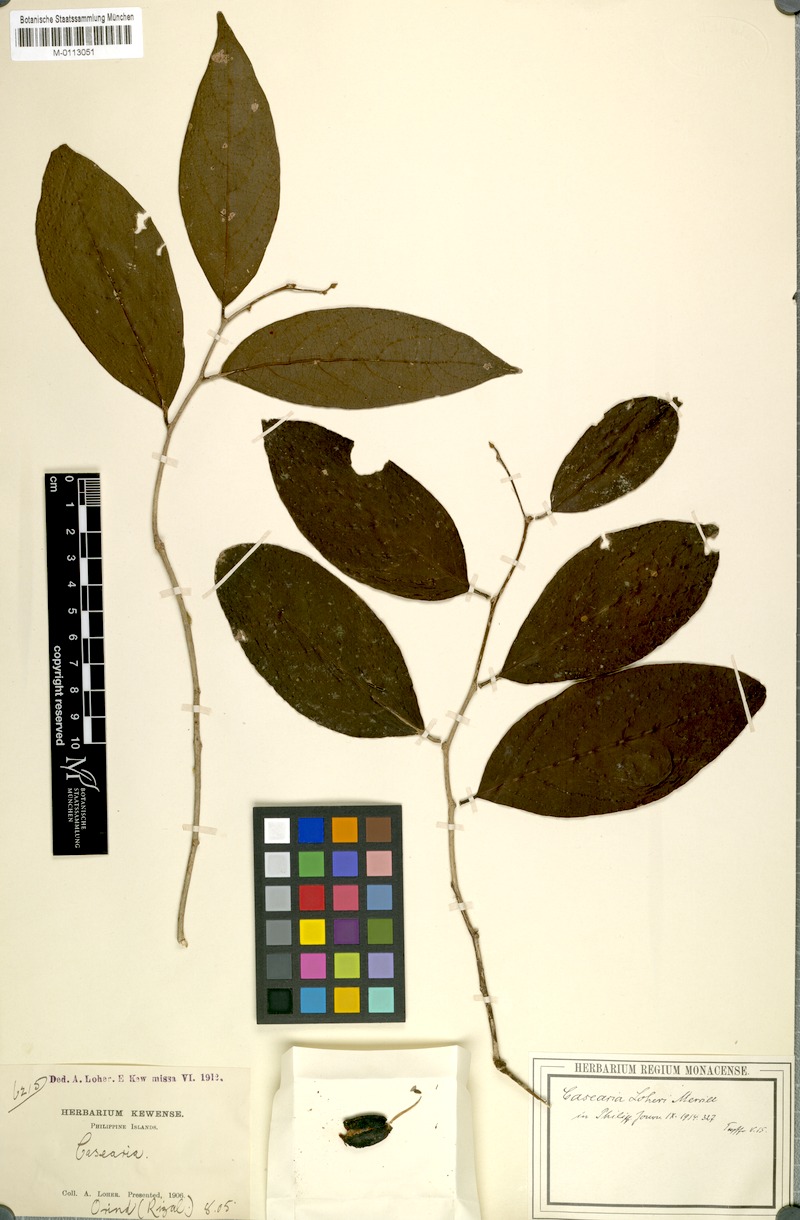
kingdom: Plantae
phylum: Tracheophyta
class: Magnoliopsida
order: Malpighiales
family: Salicaceae
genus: Casearia
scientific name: Casearia loheri
